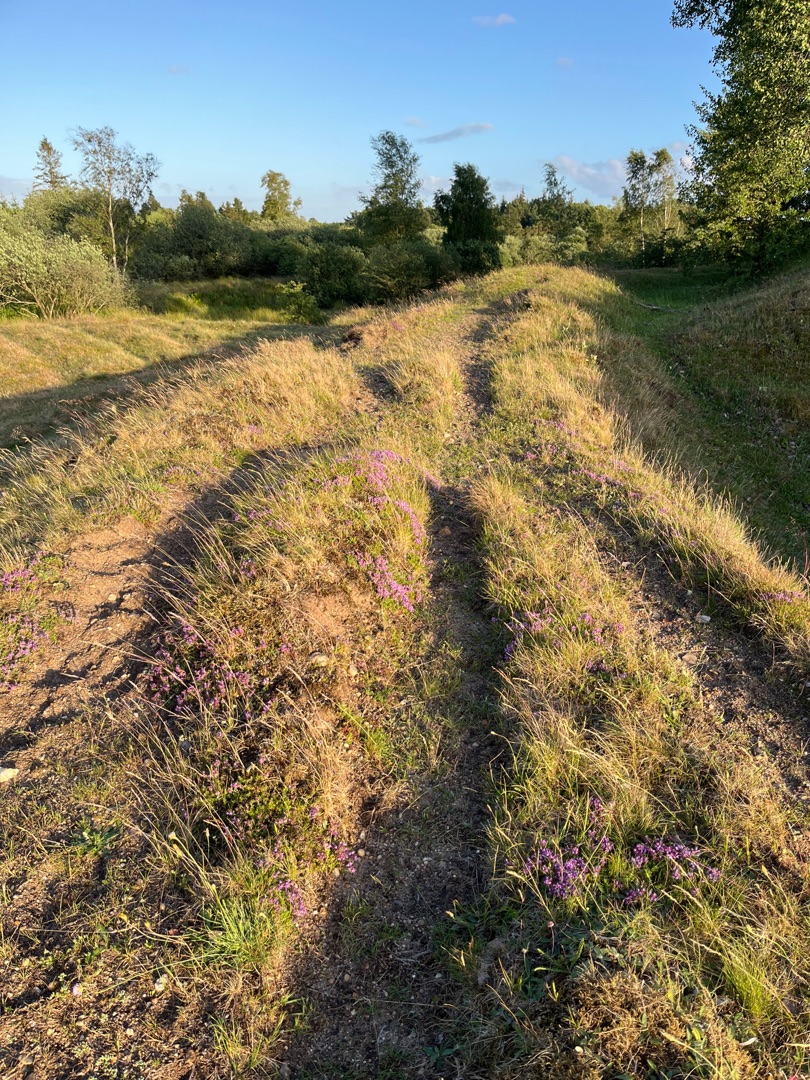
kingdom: Plantae
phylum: Tracheophyta
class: Magnoliopsida
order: Lamiales
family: Lamiaceae
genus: Thymus
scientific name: Thymus serpyllum
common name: Smalbladet timian
